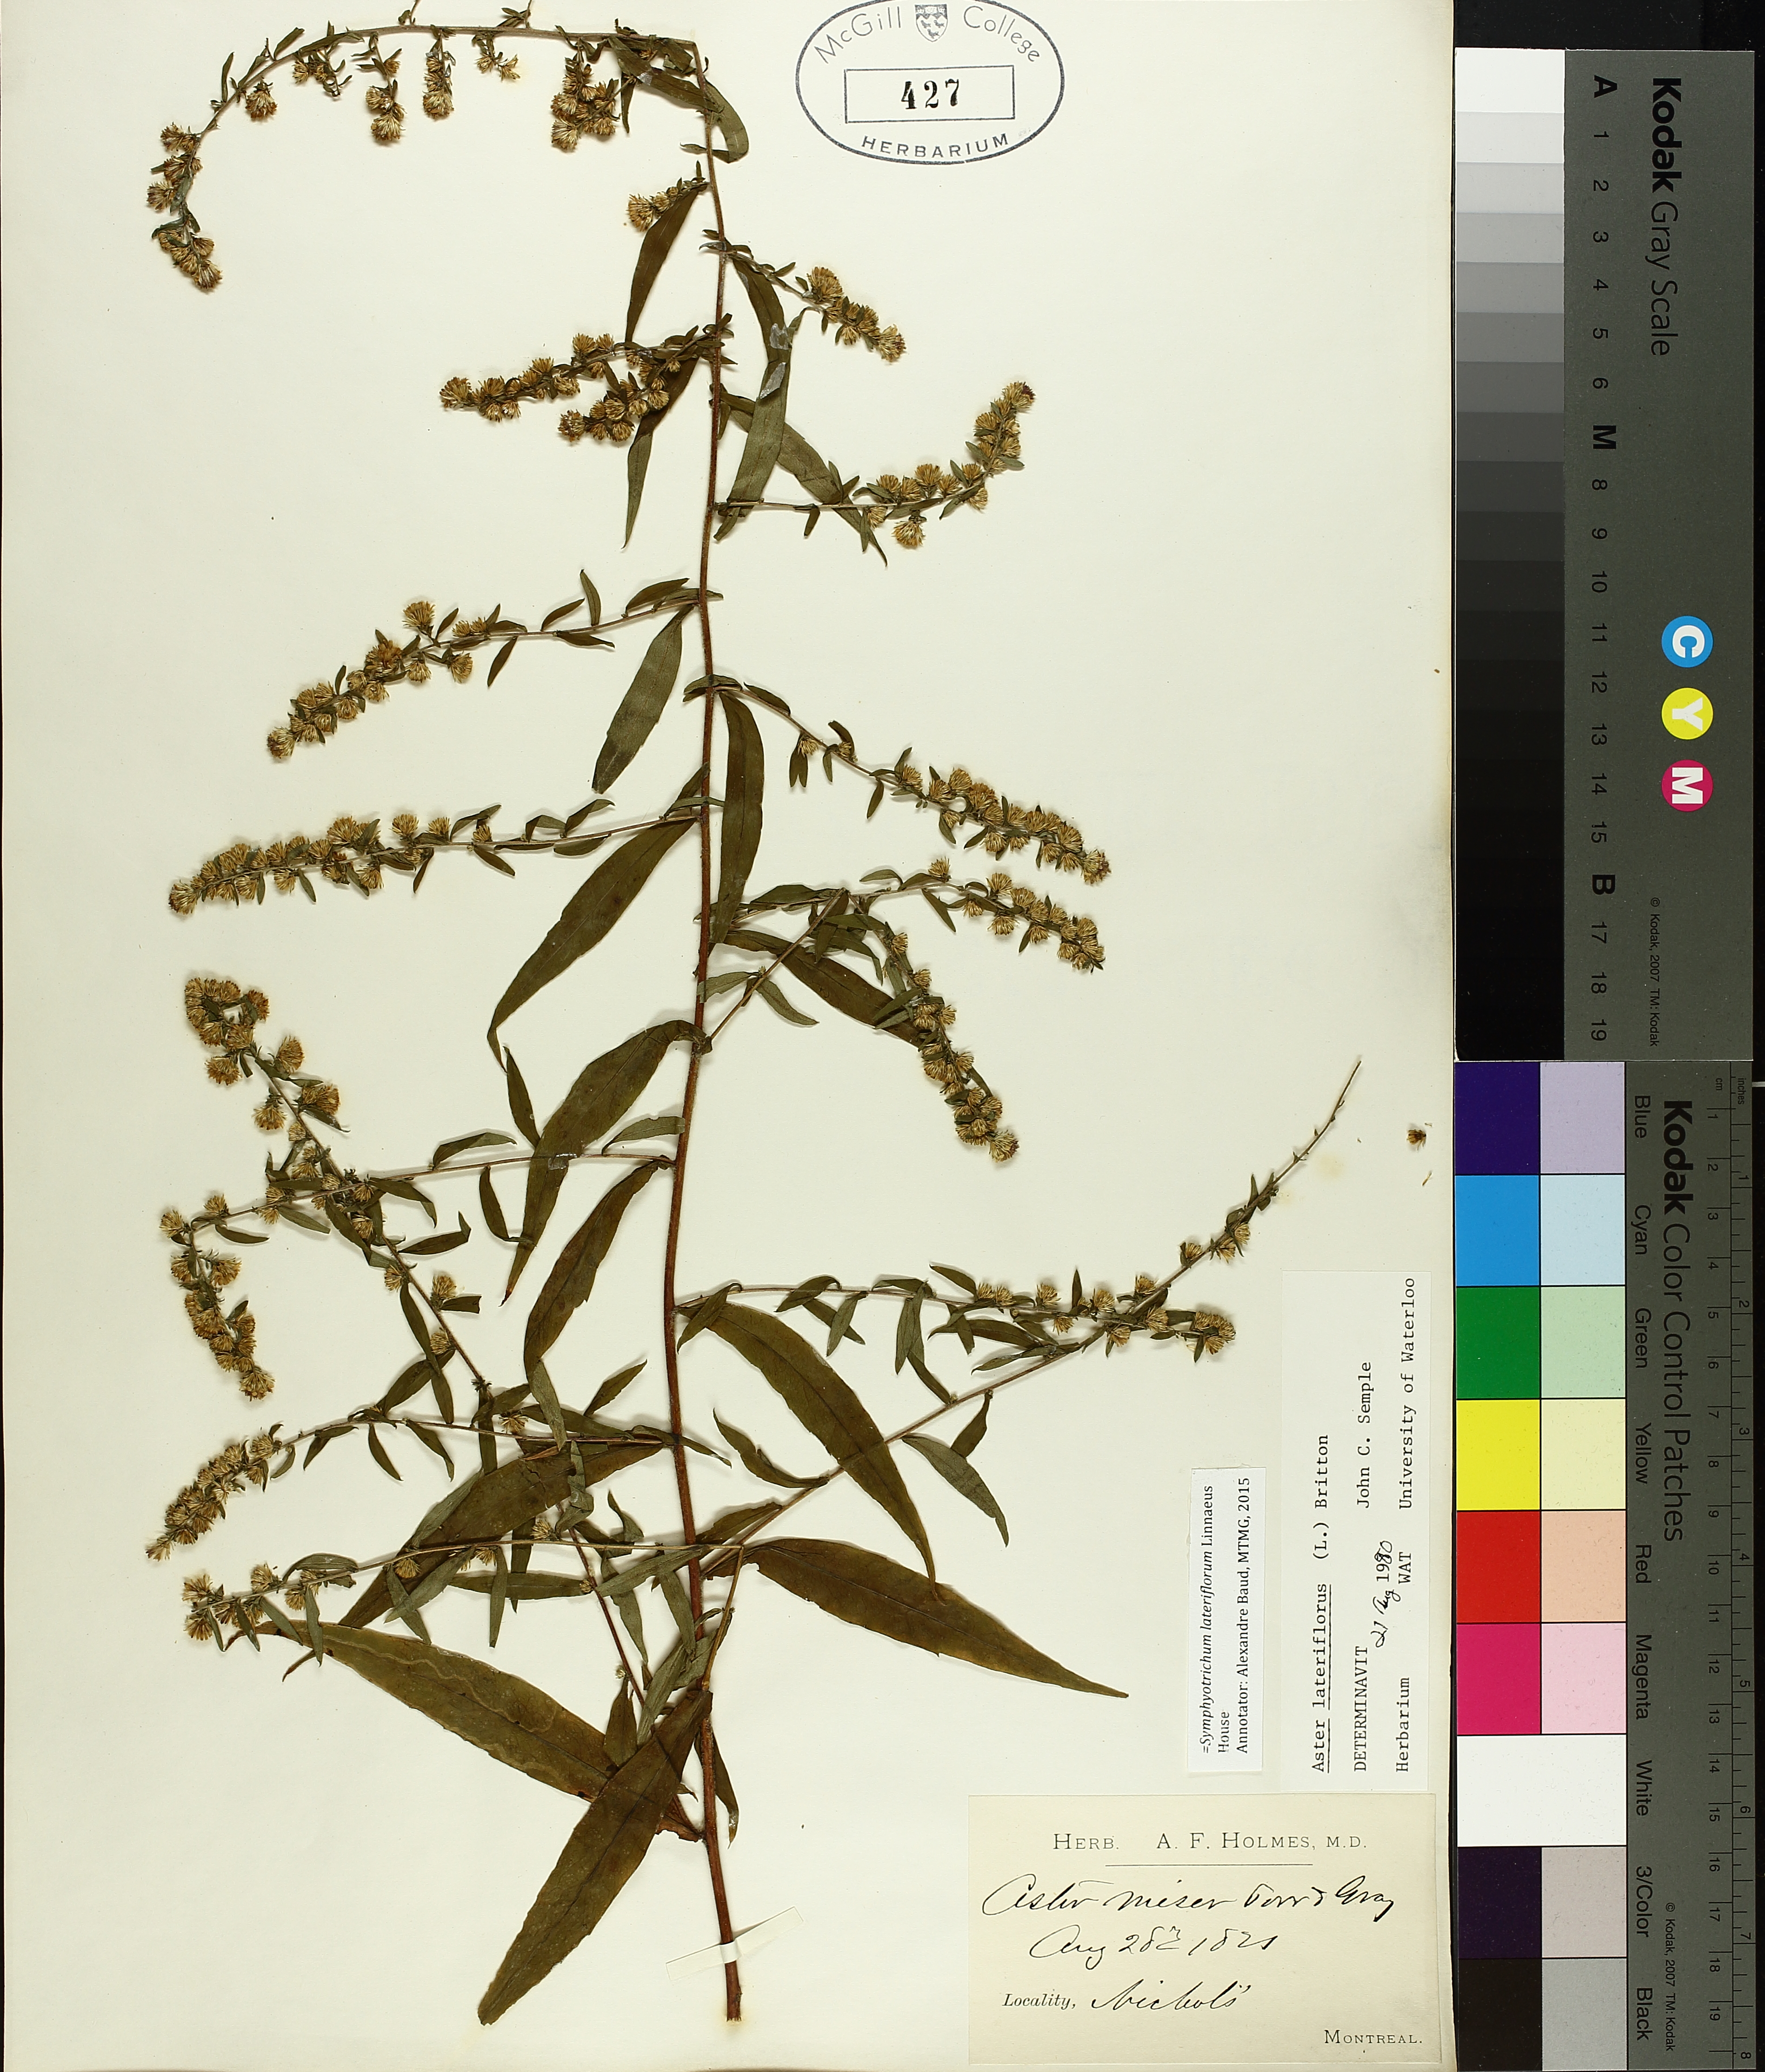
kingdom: Plantae
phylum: Tracheophyta
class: Magnoliopsida
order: Asterales
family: Asteraceae
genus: Symphyotrichum
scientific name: Symphyotrichum lanceolatum
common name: Panicled aster
